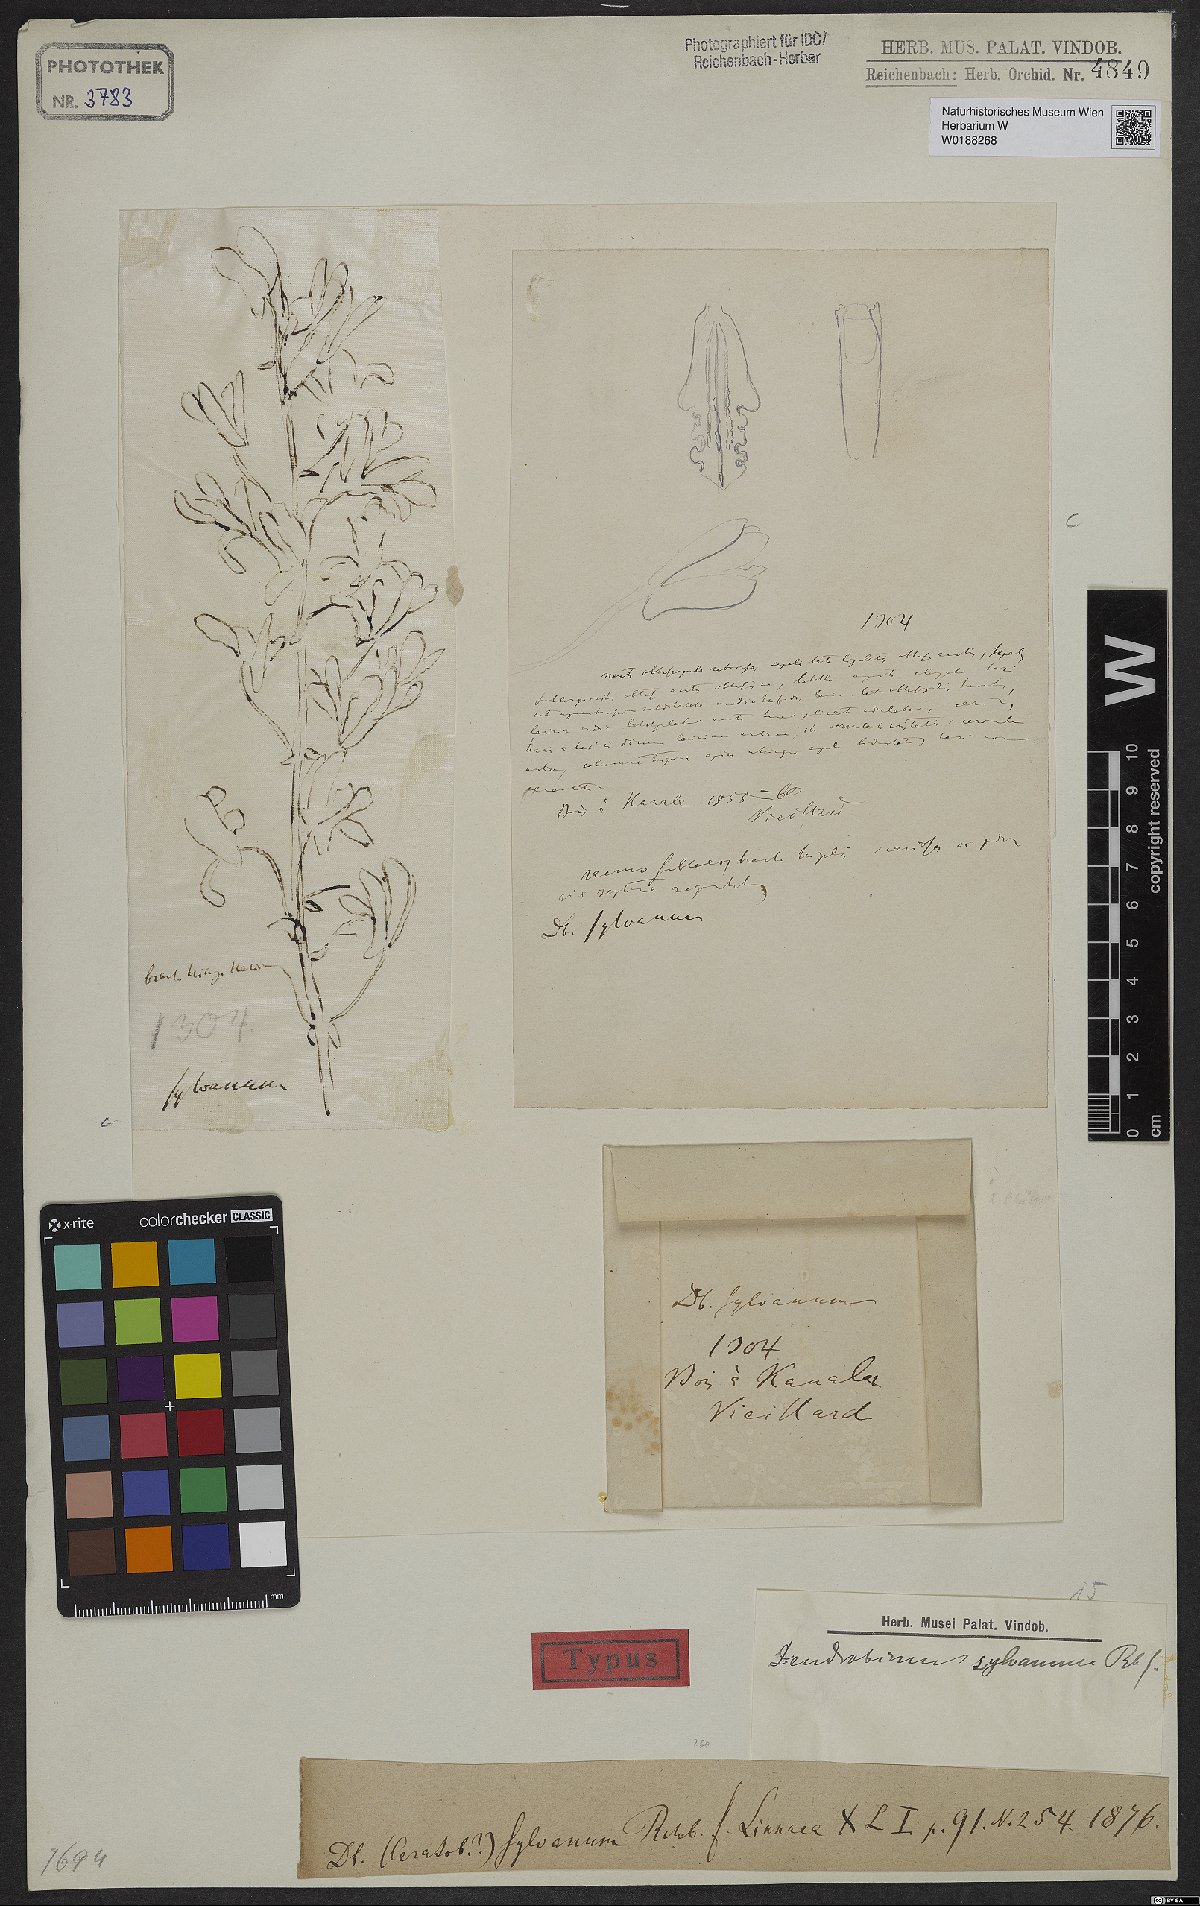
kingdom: Plantae
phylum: Tracheophyta
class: Liliopsida
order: Asparagales
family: Orchidaceae
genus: Dendrobium
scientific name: Dendrobium sylvanum
